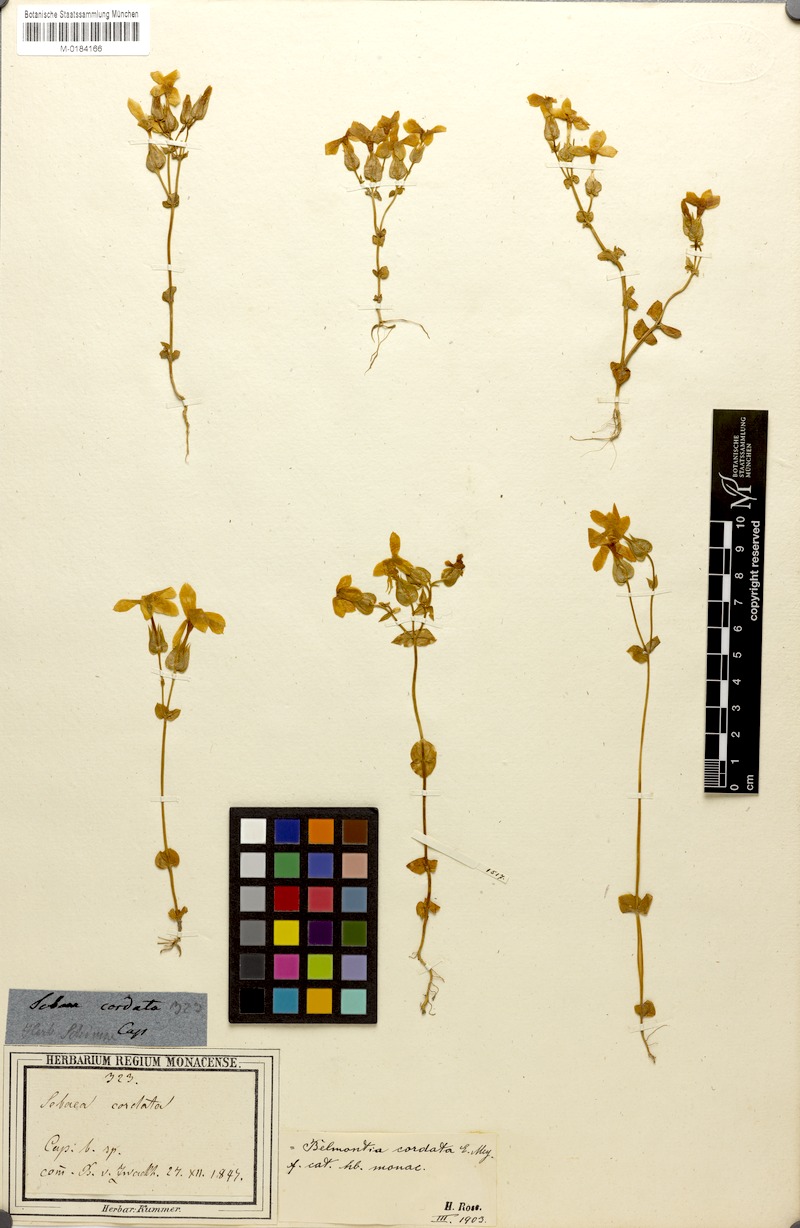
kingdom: Plantae
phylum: Tracheophyta
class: Magnoliopsida
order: Gentianales
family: Gentianaceae
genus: Sebaea
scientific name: Sebaea exacoides
